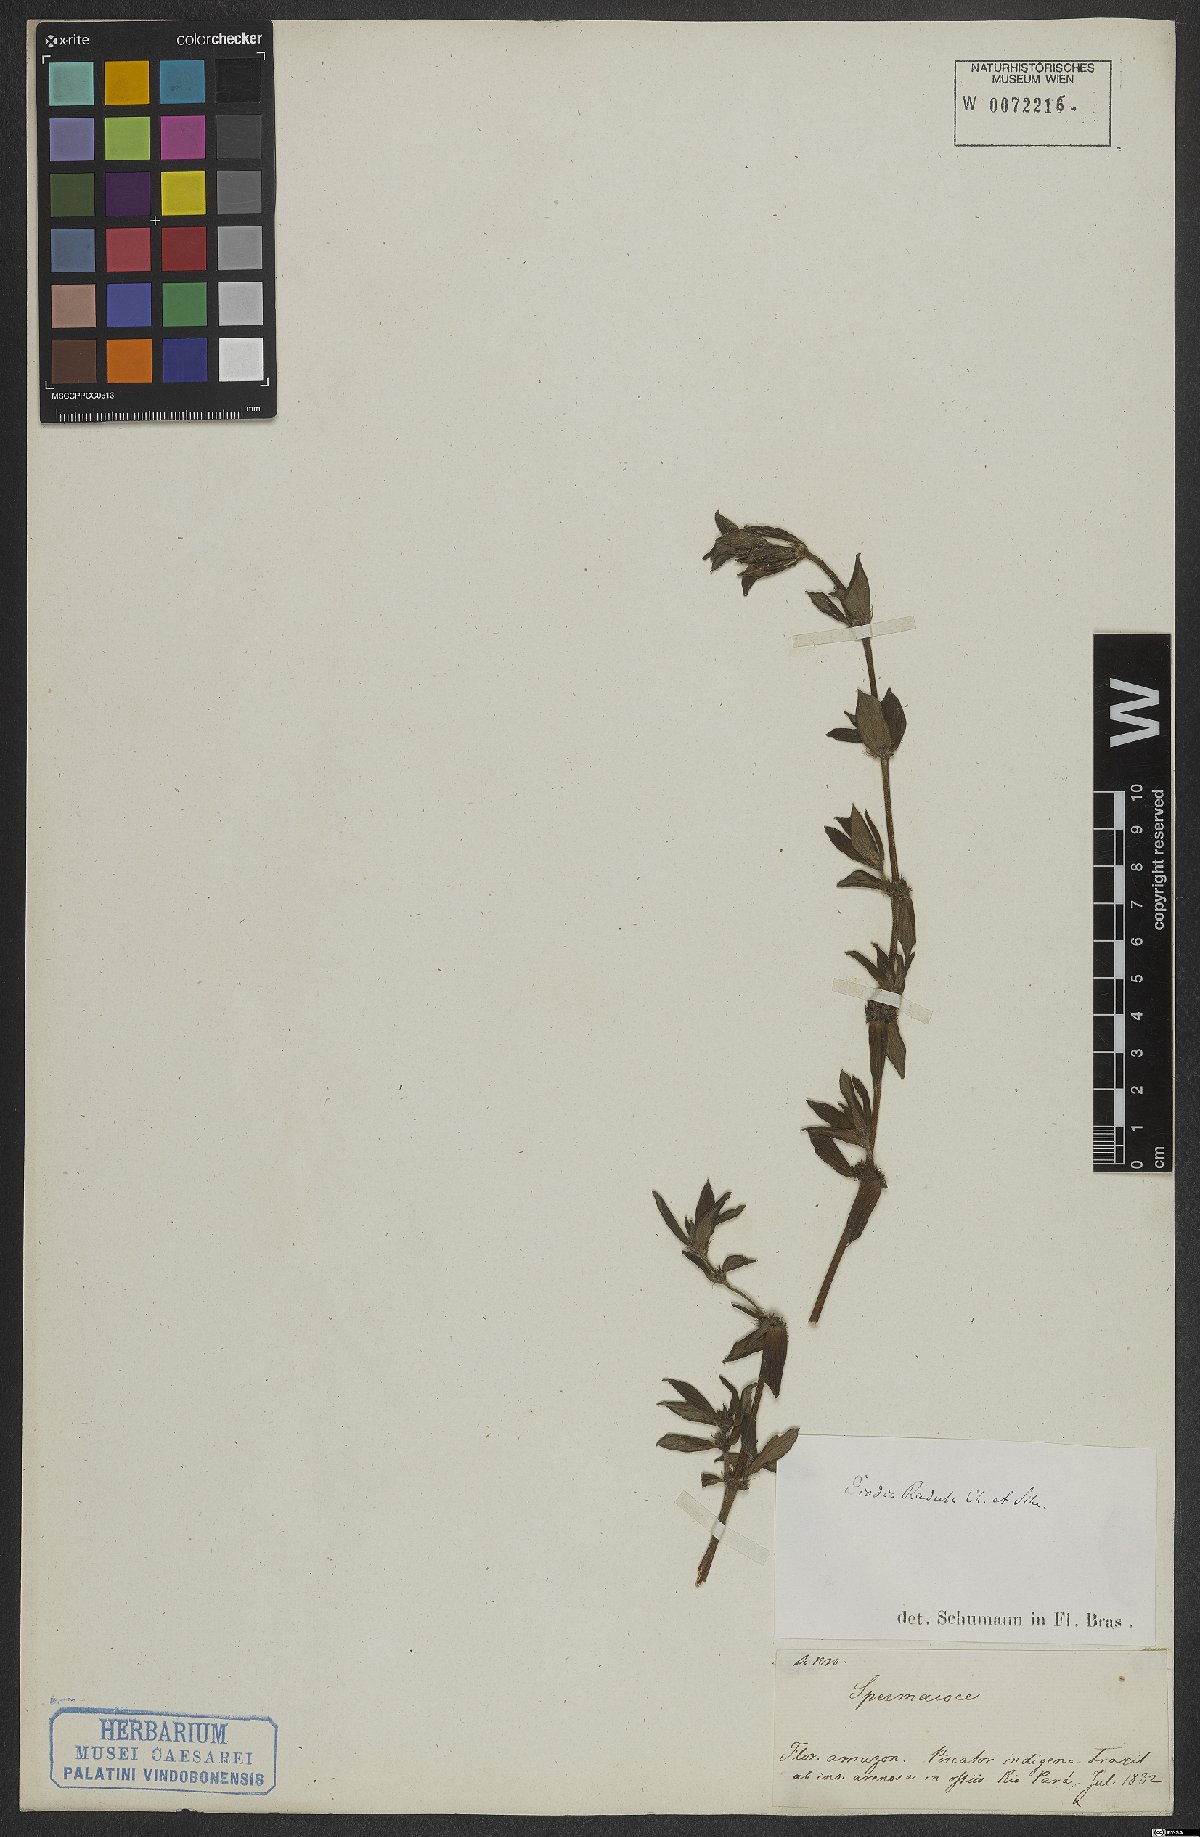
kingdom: Plantae
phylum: Tracheophyta
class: Magnoliopsida
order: Gentianales
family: Rubiaceae
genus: Hexasepalum
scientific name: Hexasepalum radulum
